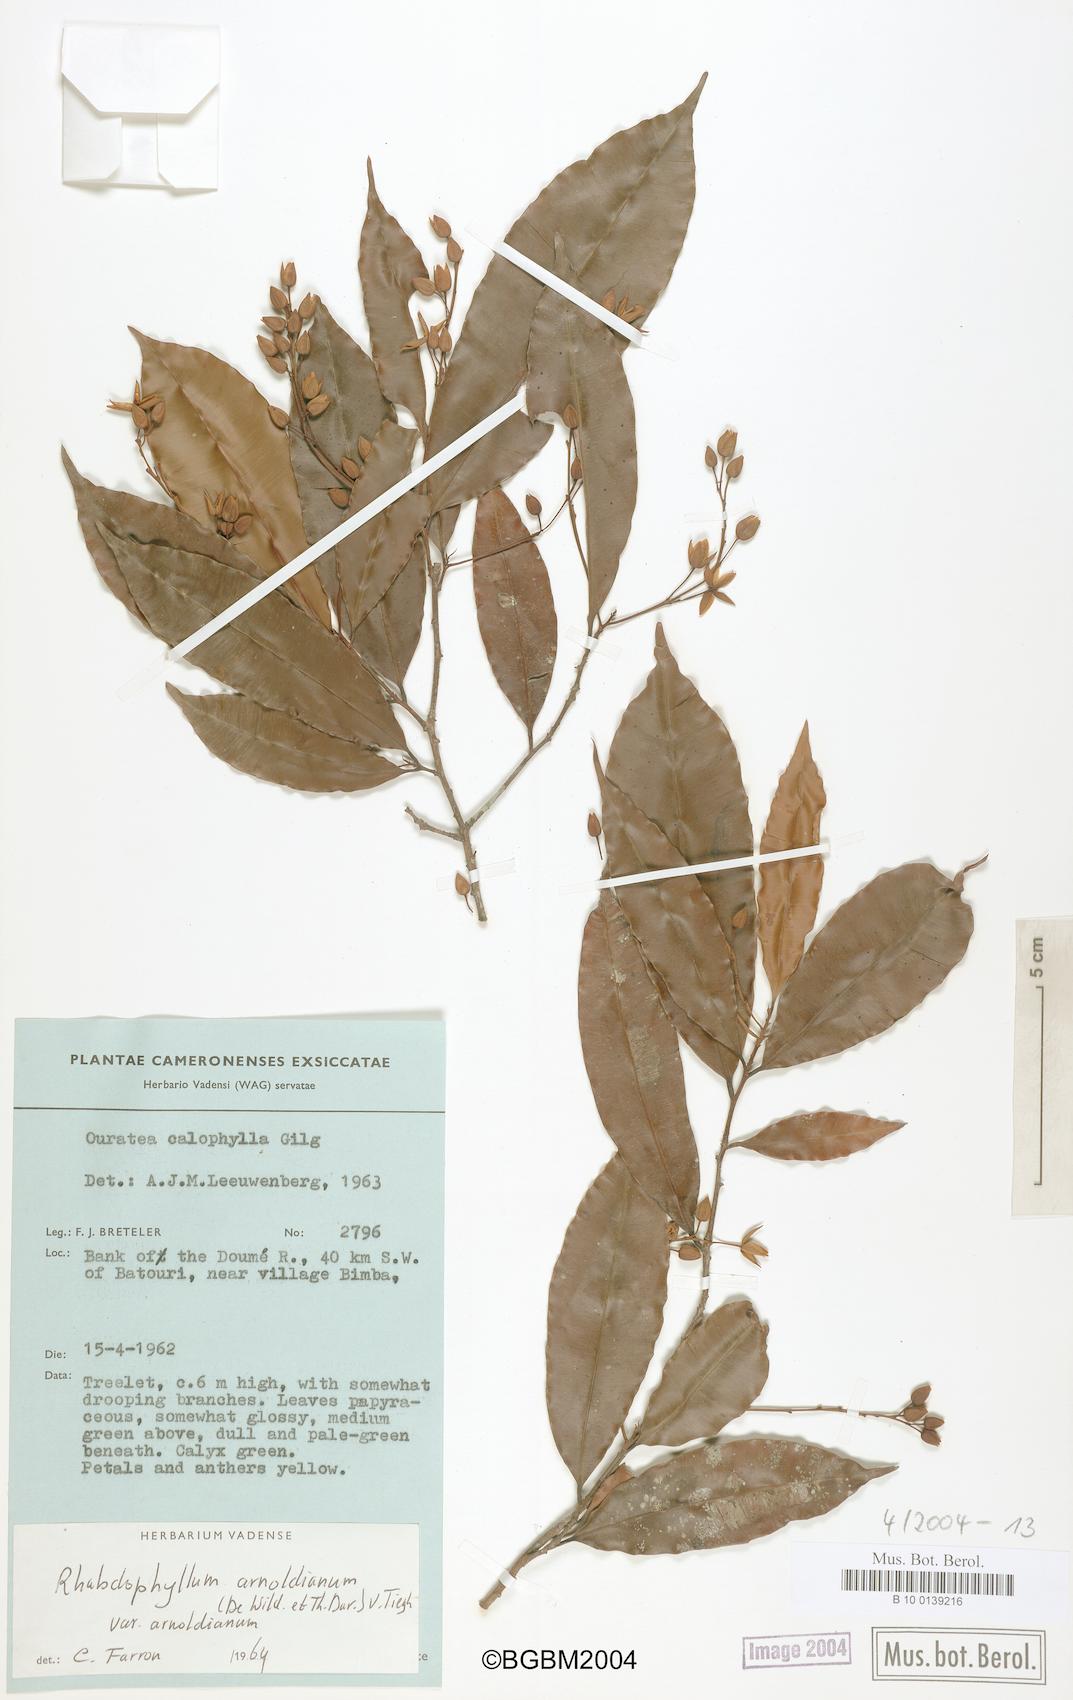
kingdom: Plantae
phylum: Tracheophyta
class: Magnoliopsida
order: Malpighiales
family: Ochnaceae
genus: Rhabdophyllum
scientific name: Rhabdophyllum arnoldianum
